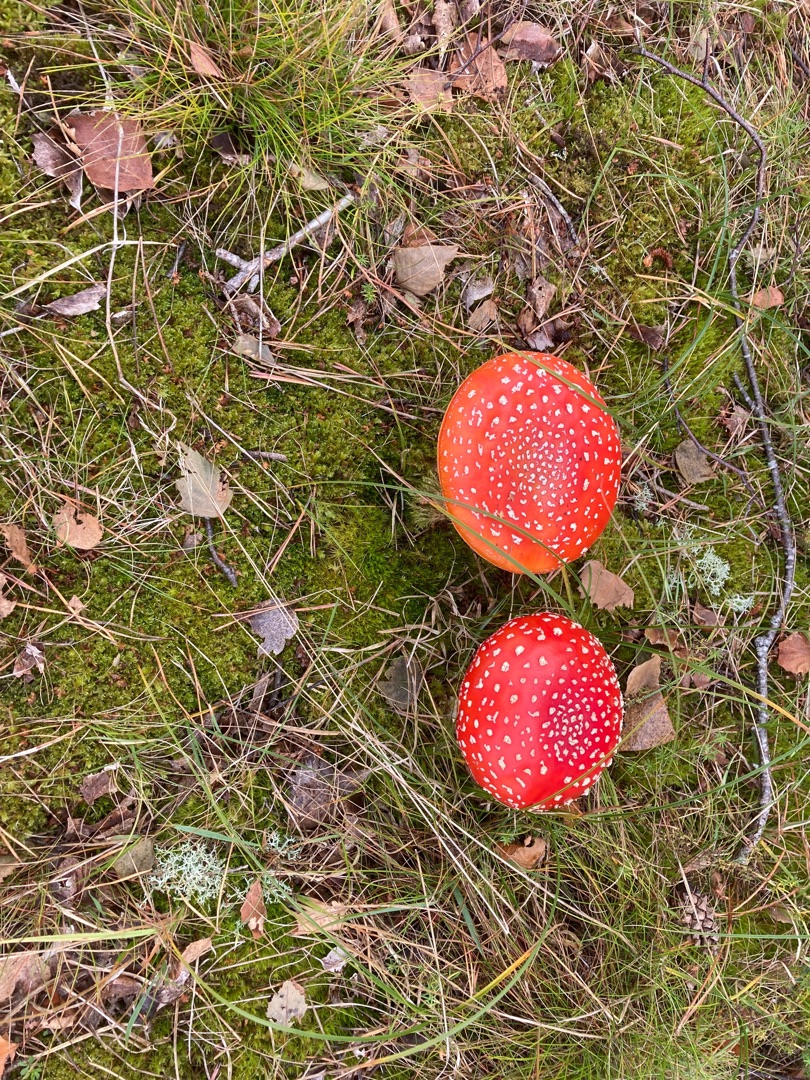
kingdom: Fungi
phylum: Basidiomycota
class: Agaricomycetes
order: Agaricales
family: Amanitaceae
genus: Amanita
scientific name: Amanita muscaria
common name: Rød fluesvamp
